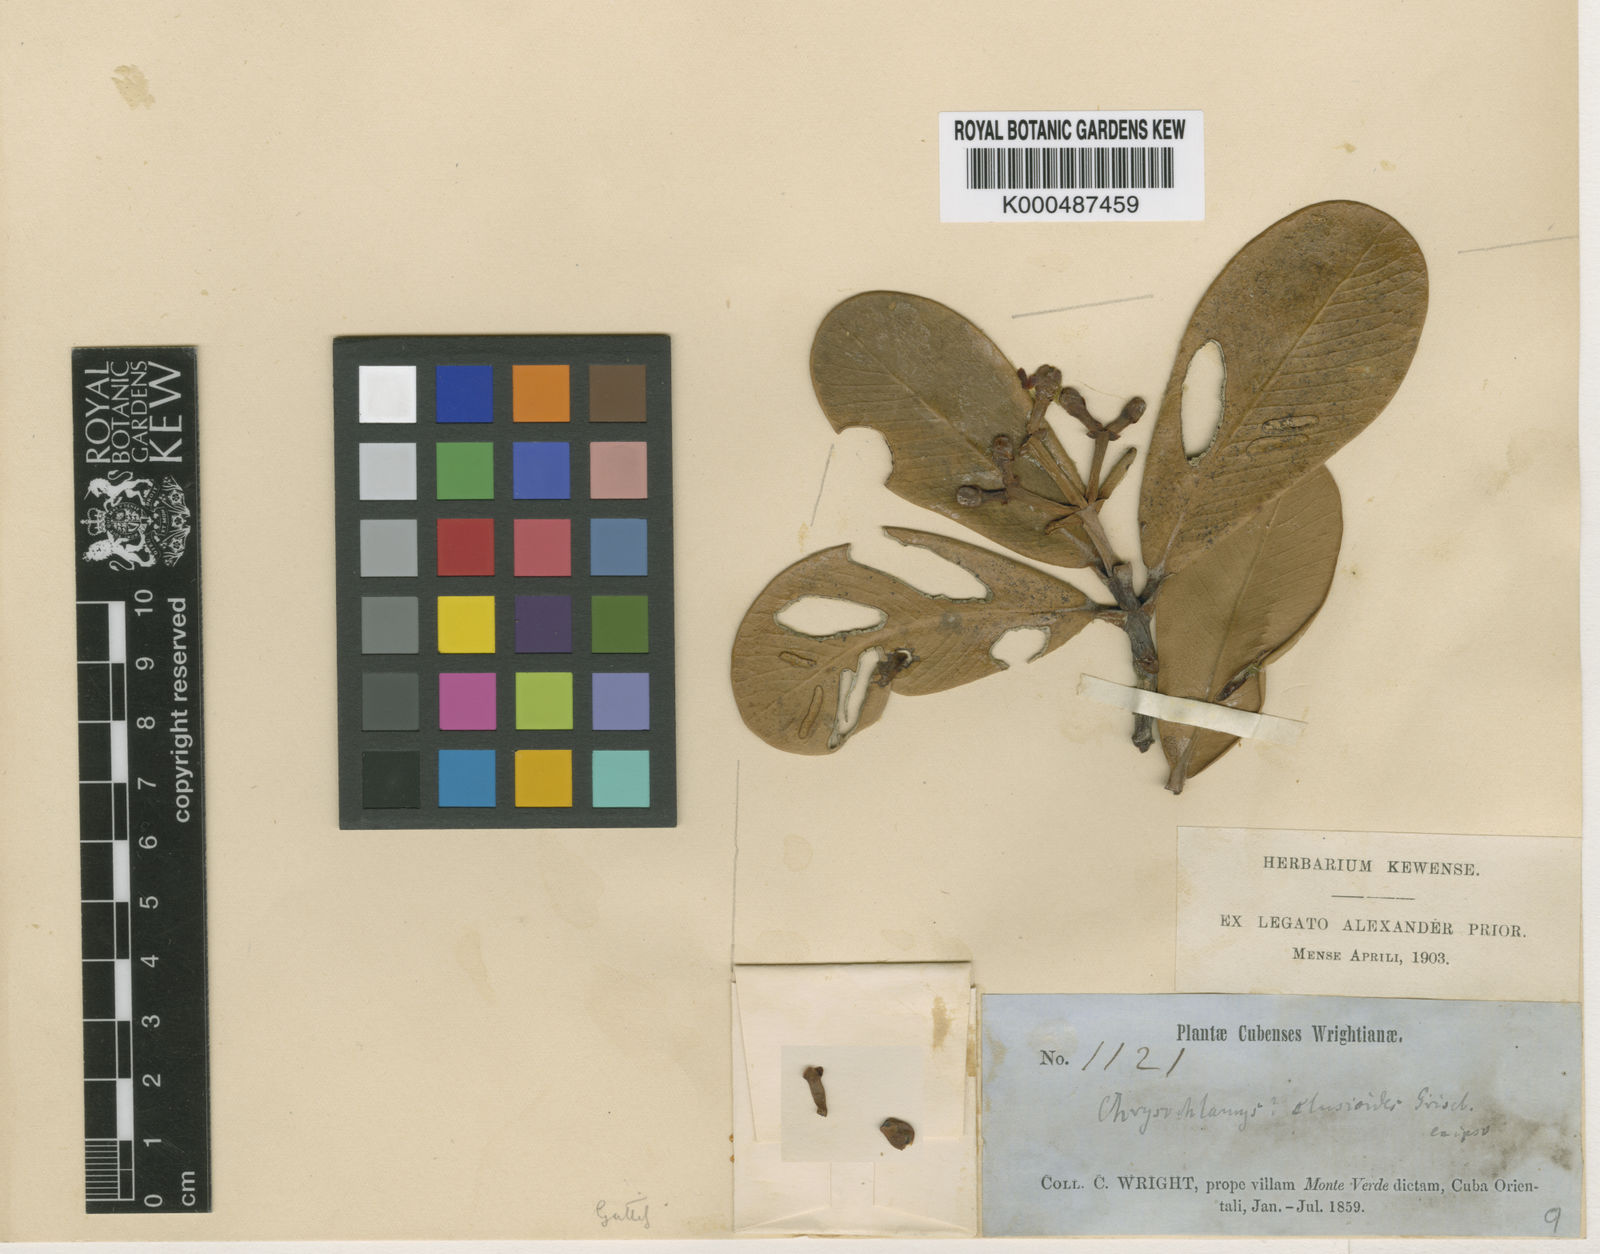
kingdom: Plantae
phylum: Tracheophyta
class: Magnoliopsida
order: Malpighiales
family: Clusiaceae
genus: Clusia
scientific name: Clusia
